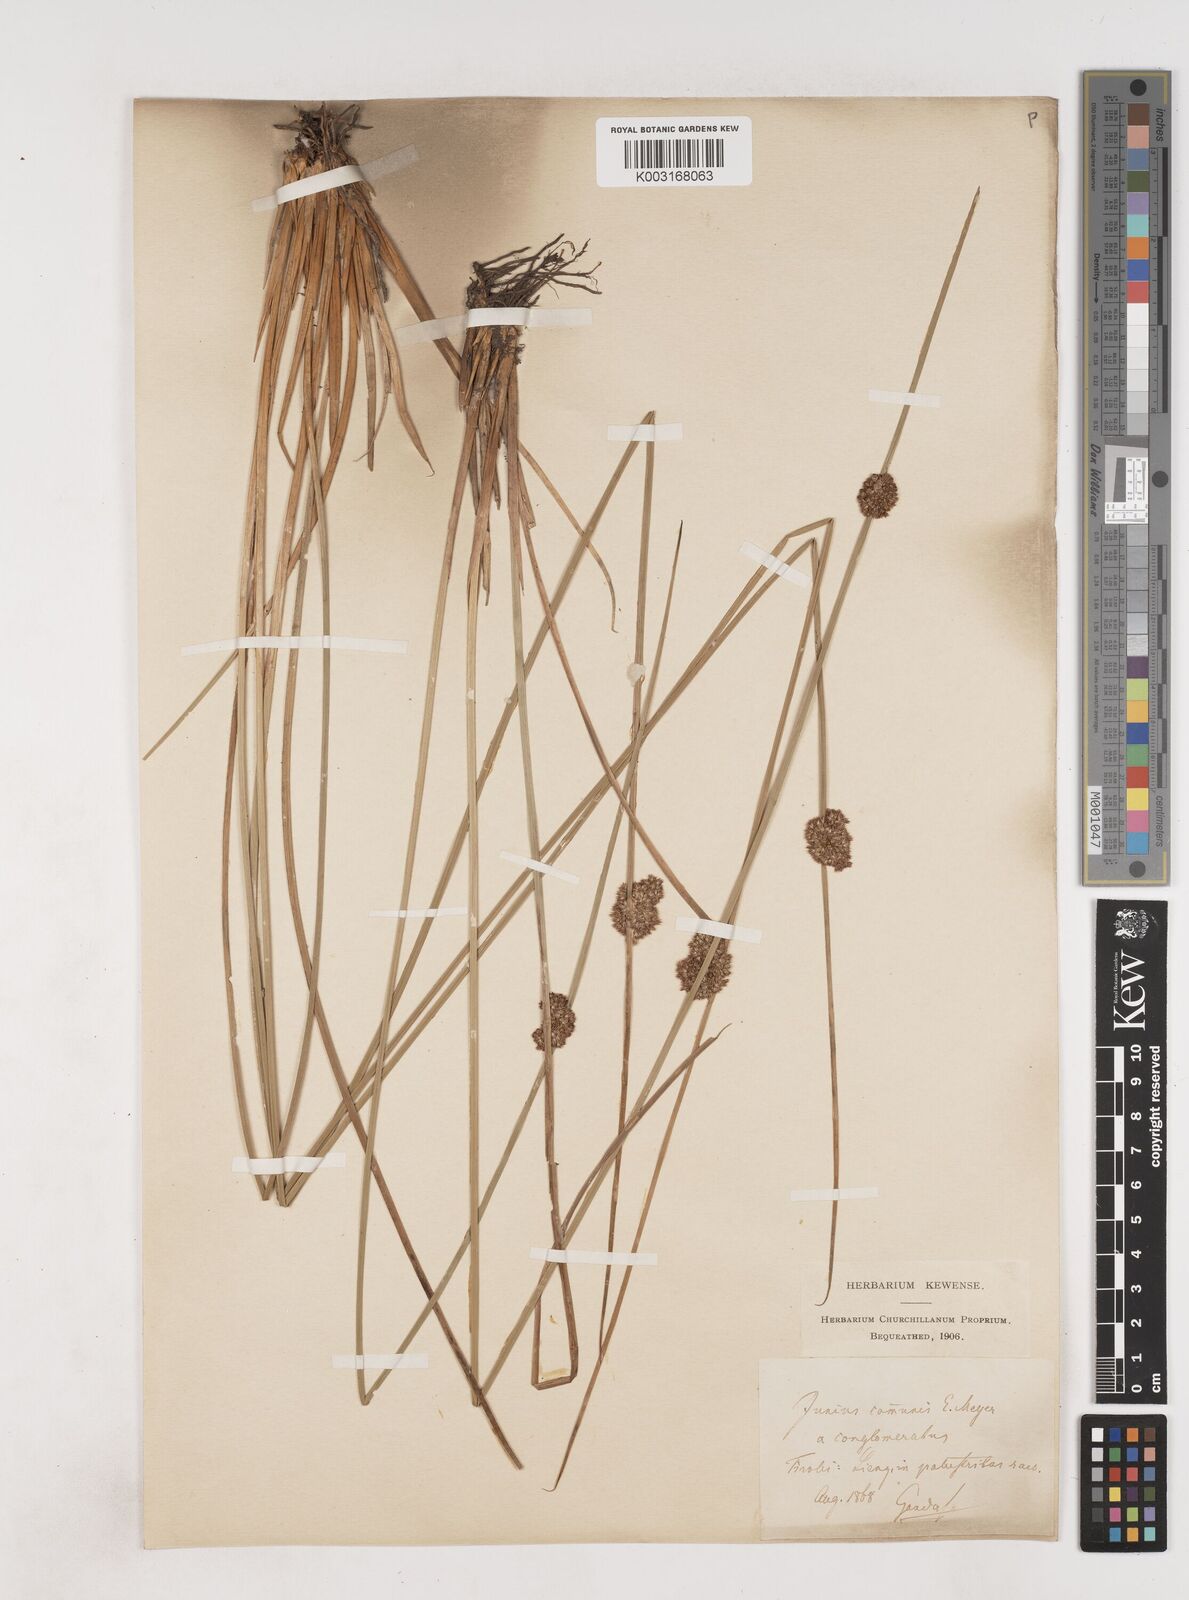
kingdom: Plantae
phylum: Tracheophyta
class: Liliopsida
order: Poales
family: Juncaceae
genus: Juncus
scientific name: Juncus conglomeratus
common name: Compact rush
